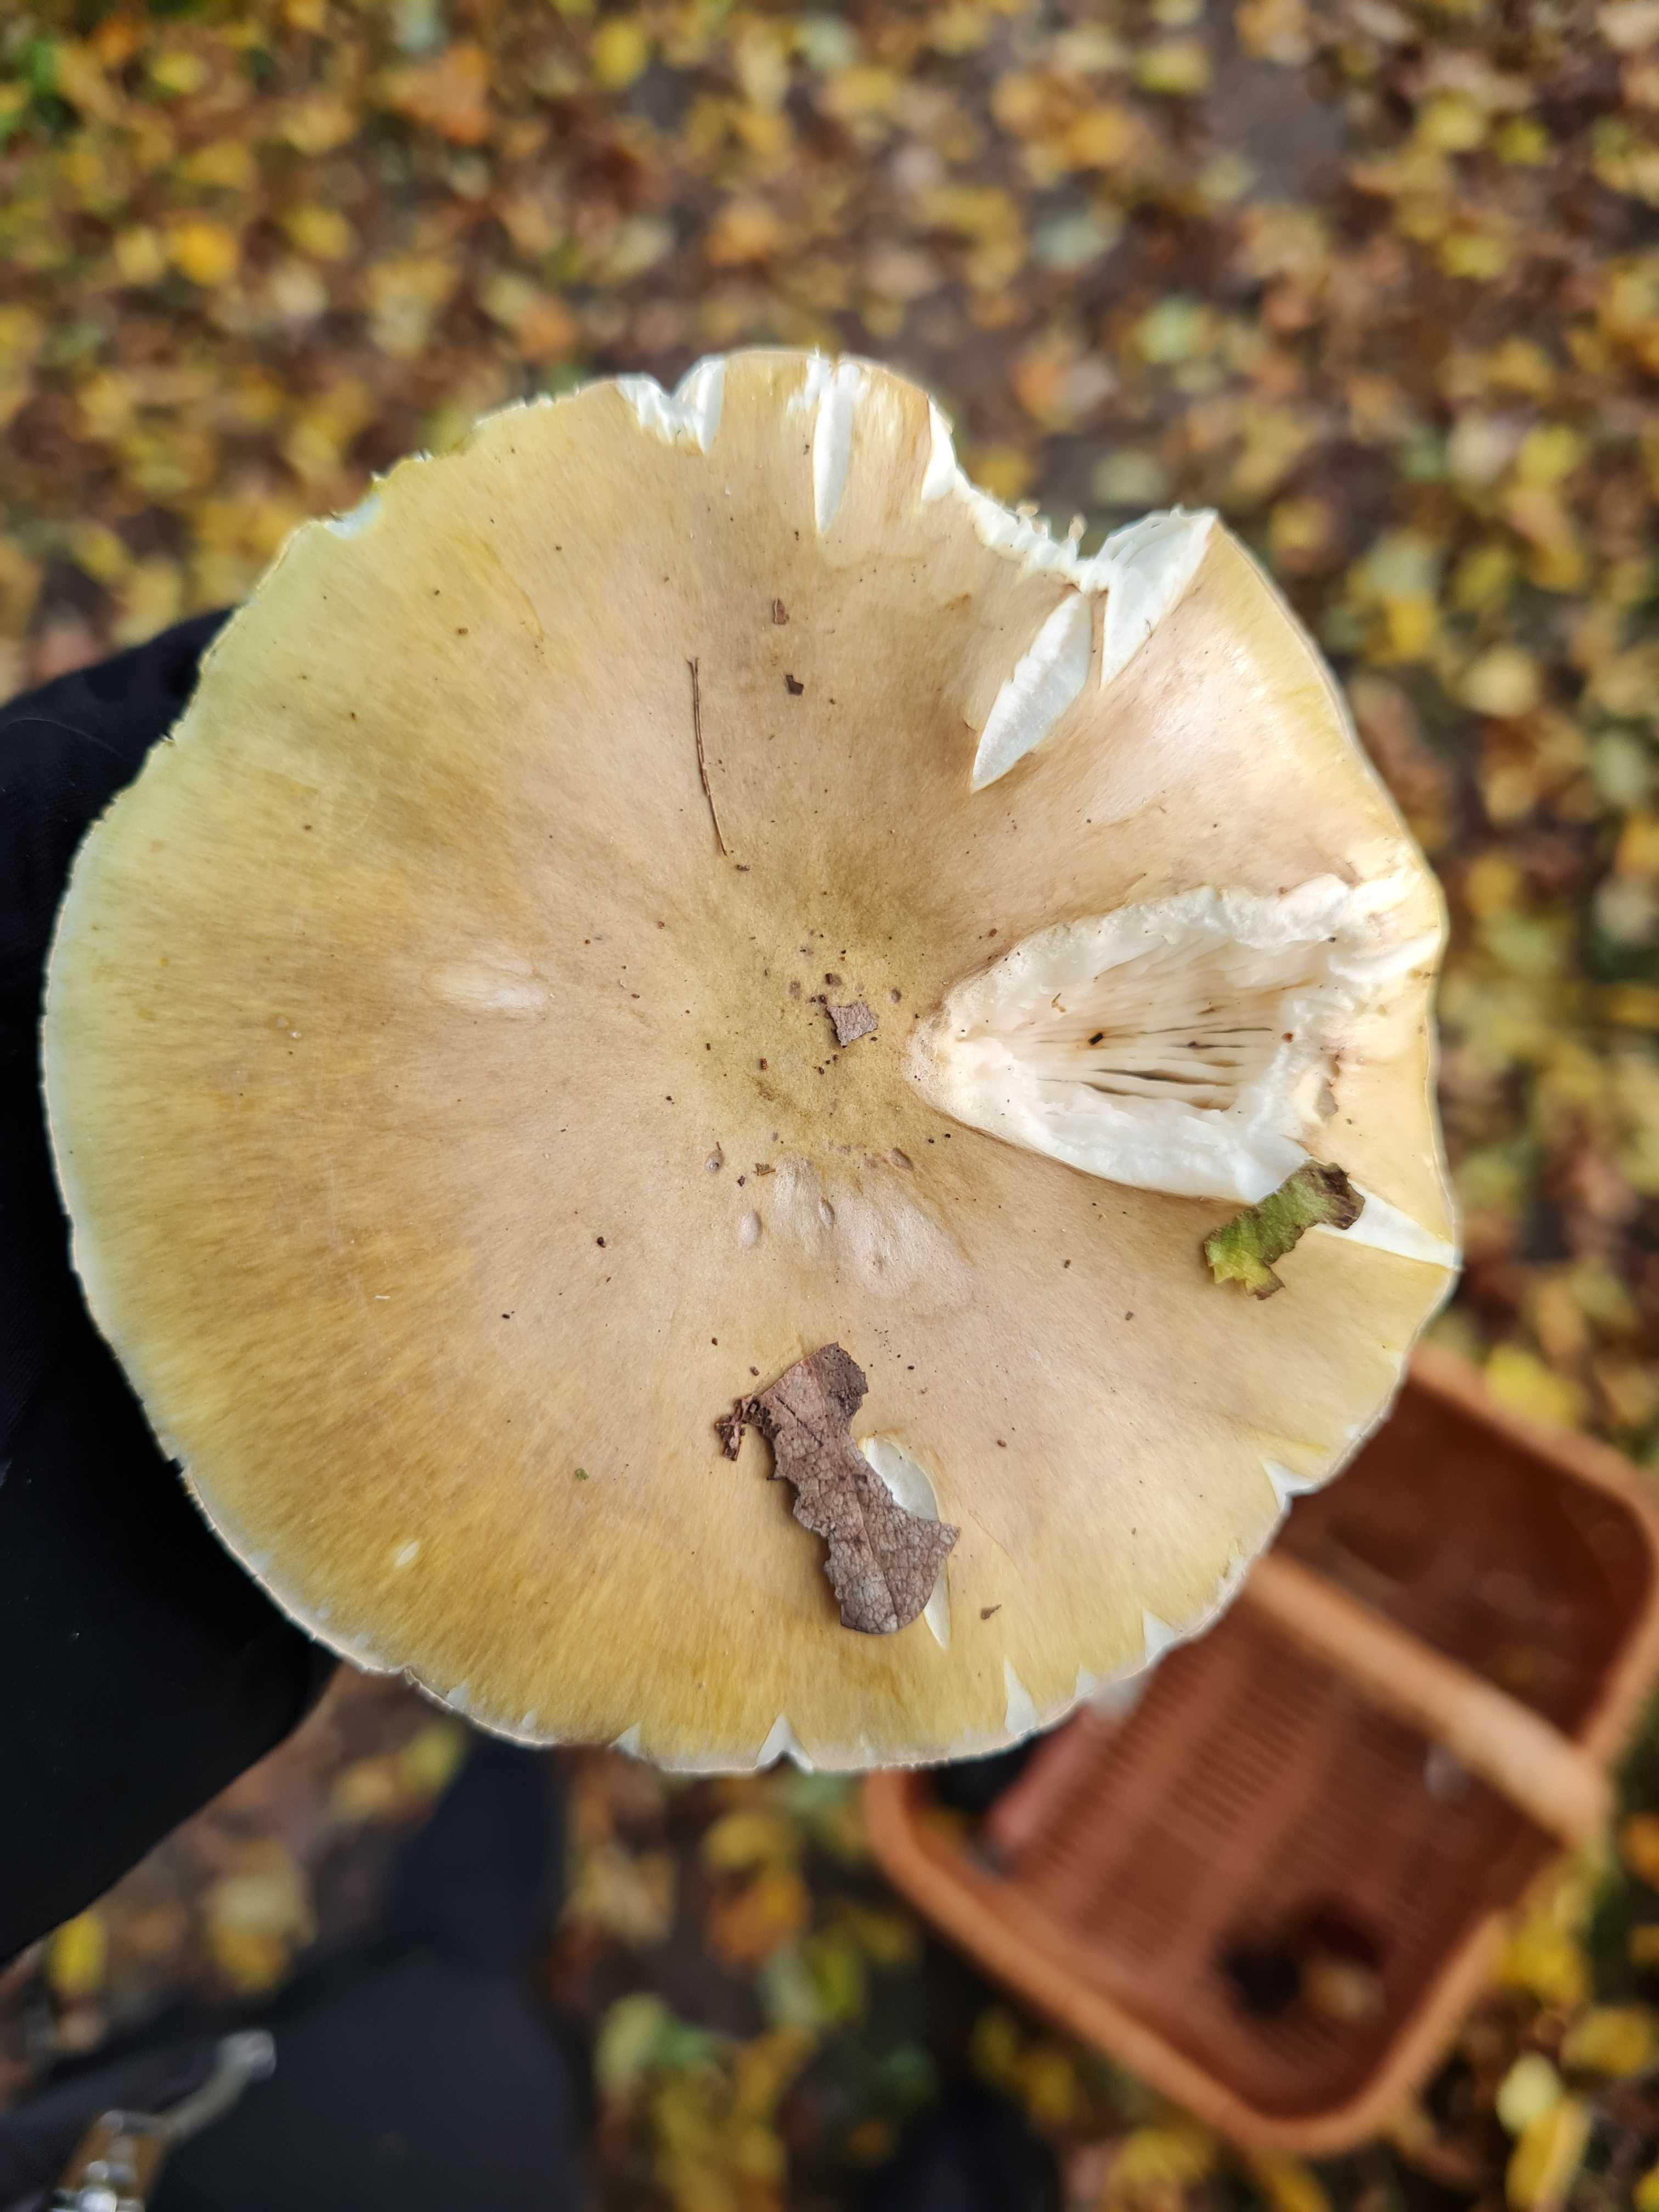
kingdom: Fungi
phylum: Basidiomycota
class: Agaricomycetes
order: Agaricales
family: Amanitaceae
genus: Amanita
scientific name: Amanita phalloides
